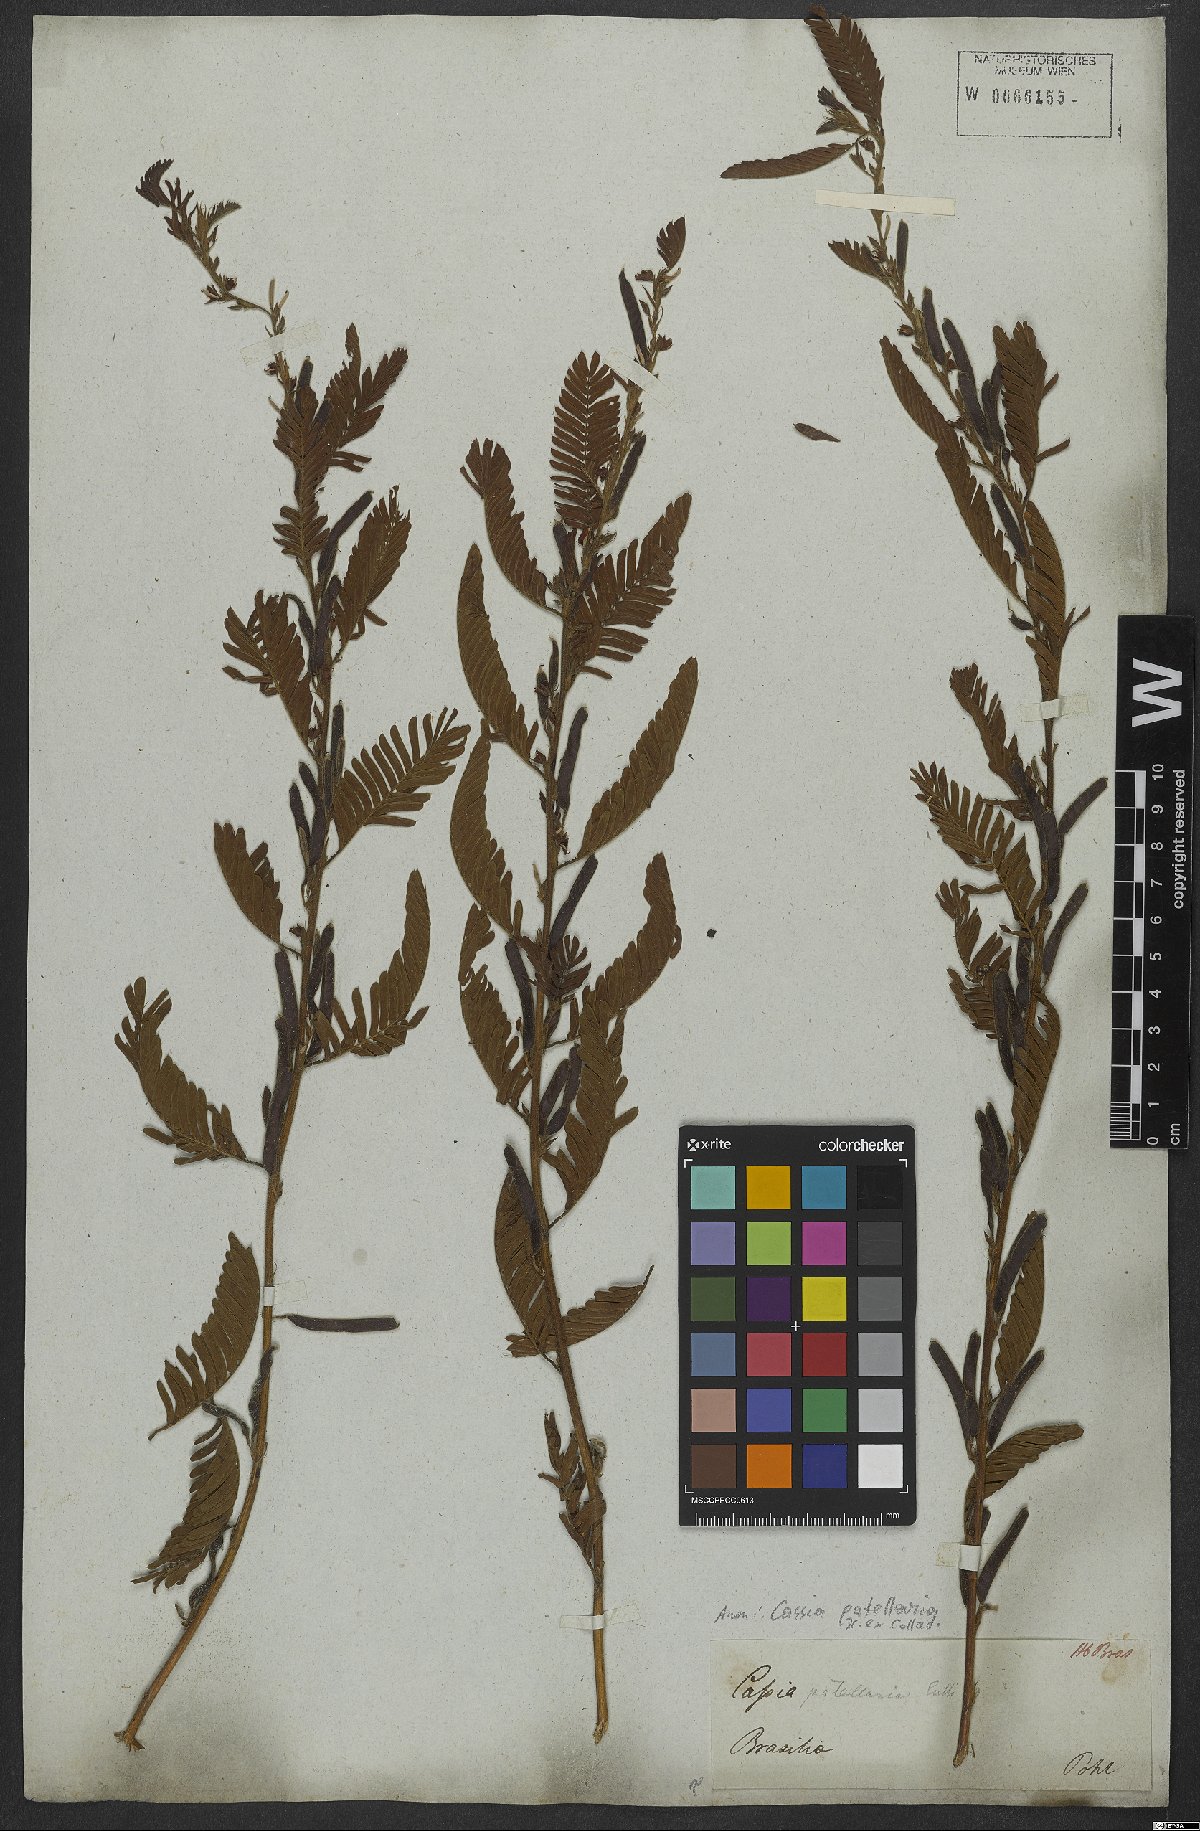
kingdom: Plantae
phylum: Tracheophyta
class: Magnoliopsida
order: Fabales
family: Fabaceae
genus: Chamaecrista
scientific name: Chamaecrista nictitans
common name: Sensitive cassia
